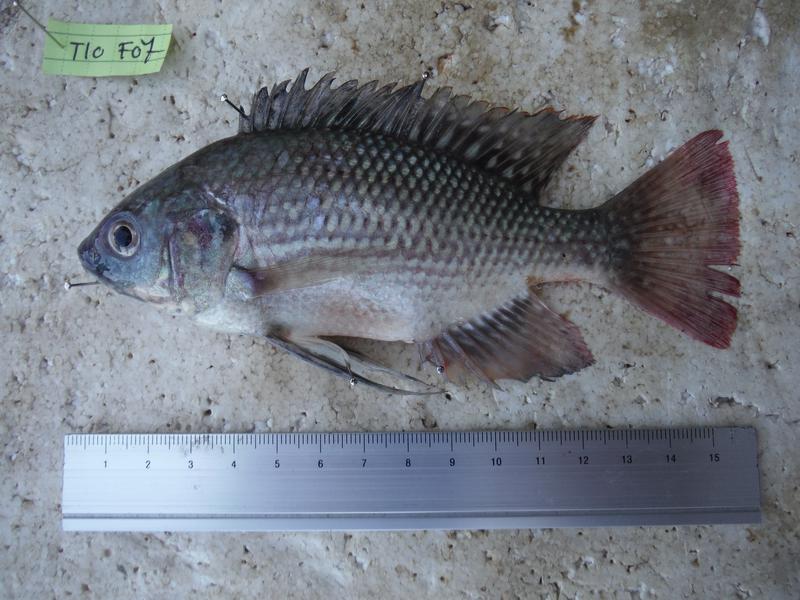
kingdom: Animalia
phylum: Chordata
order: Perciformes
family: Cichlidae
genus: Oreochromis
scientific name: Oreochromis esculentus
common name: Carp
